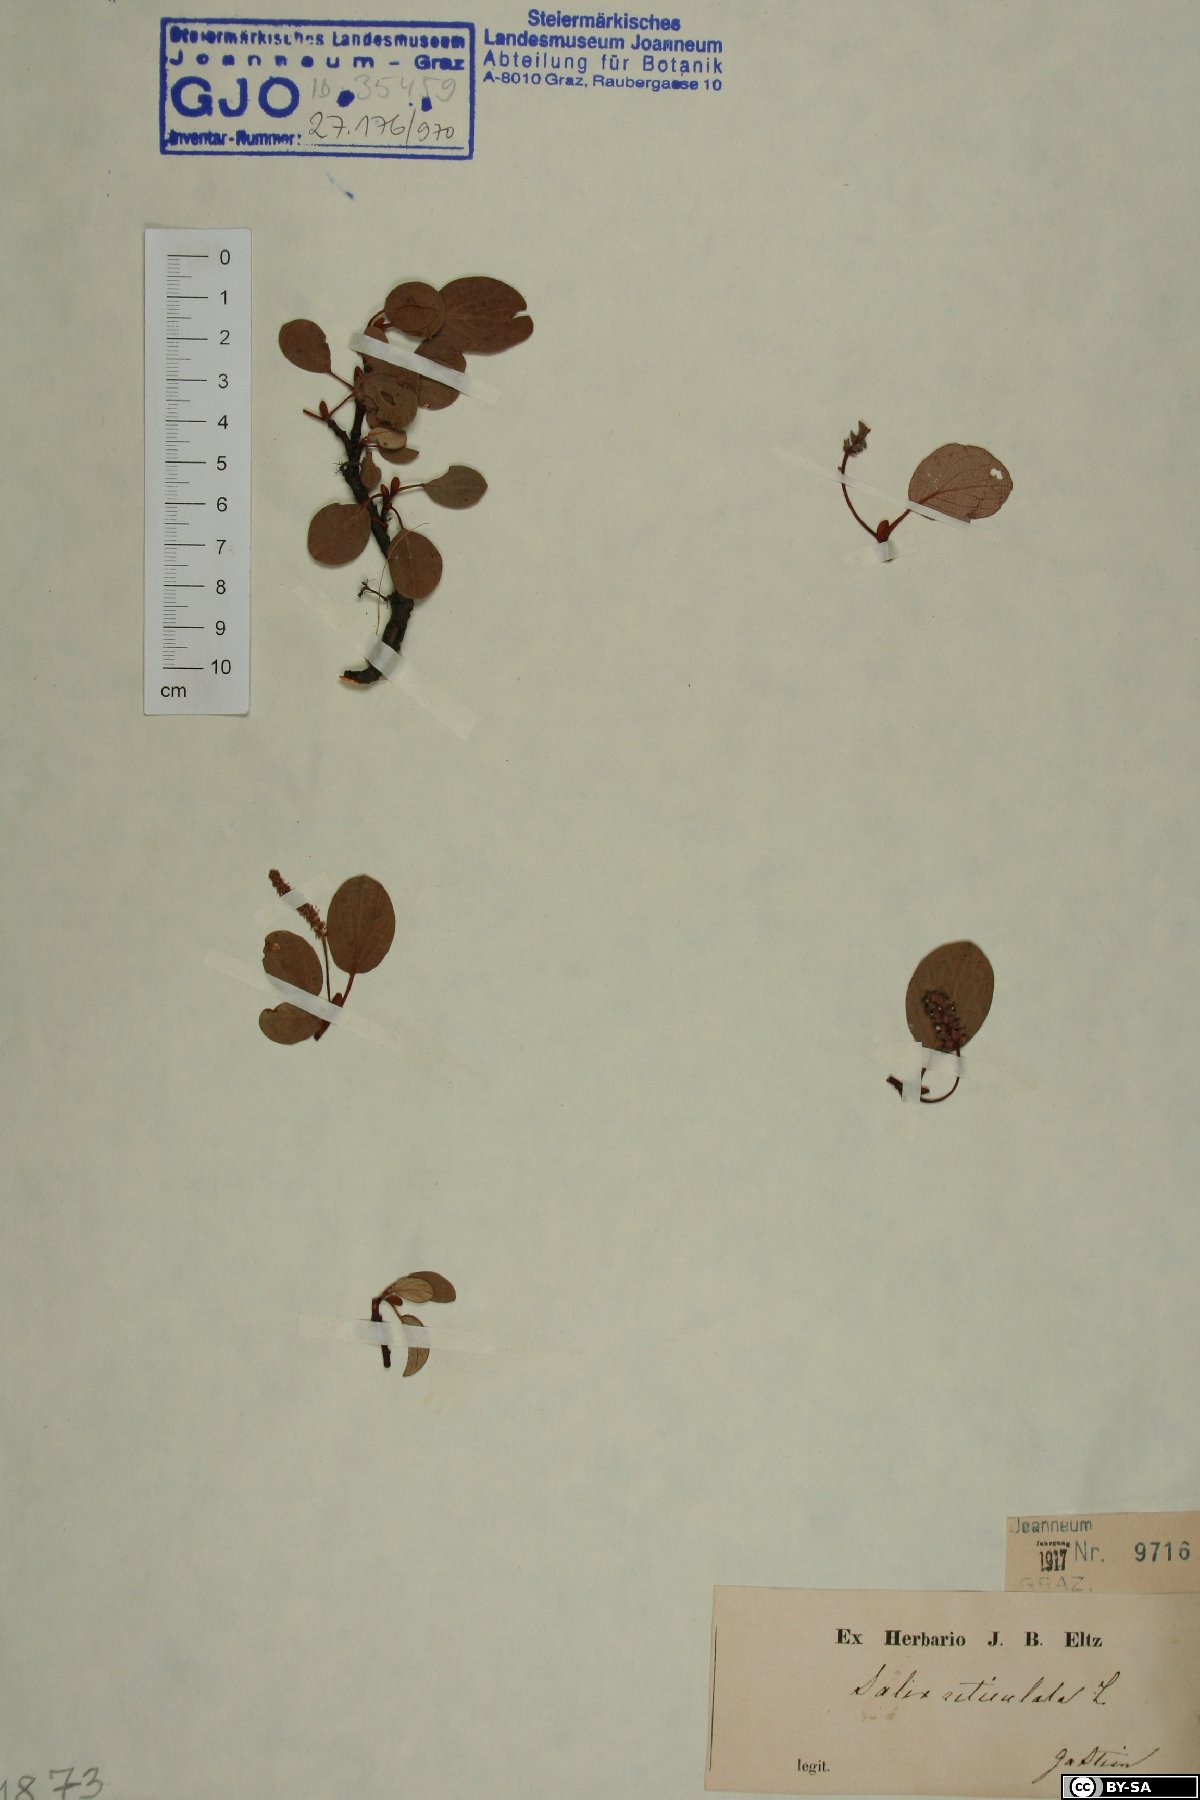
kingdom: Plantae
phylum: Tracheophyta
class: Magnoliopsida
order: Malpighiales
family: Salicaceae
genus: Salix
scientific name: Salix reticulata
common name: Net-leaved willow
